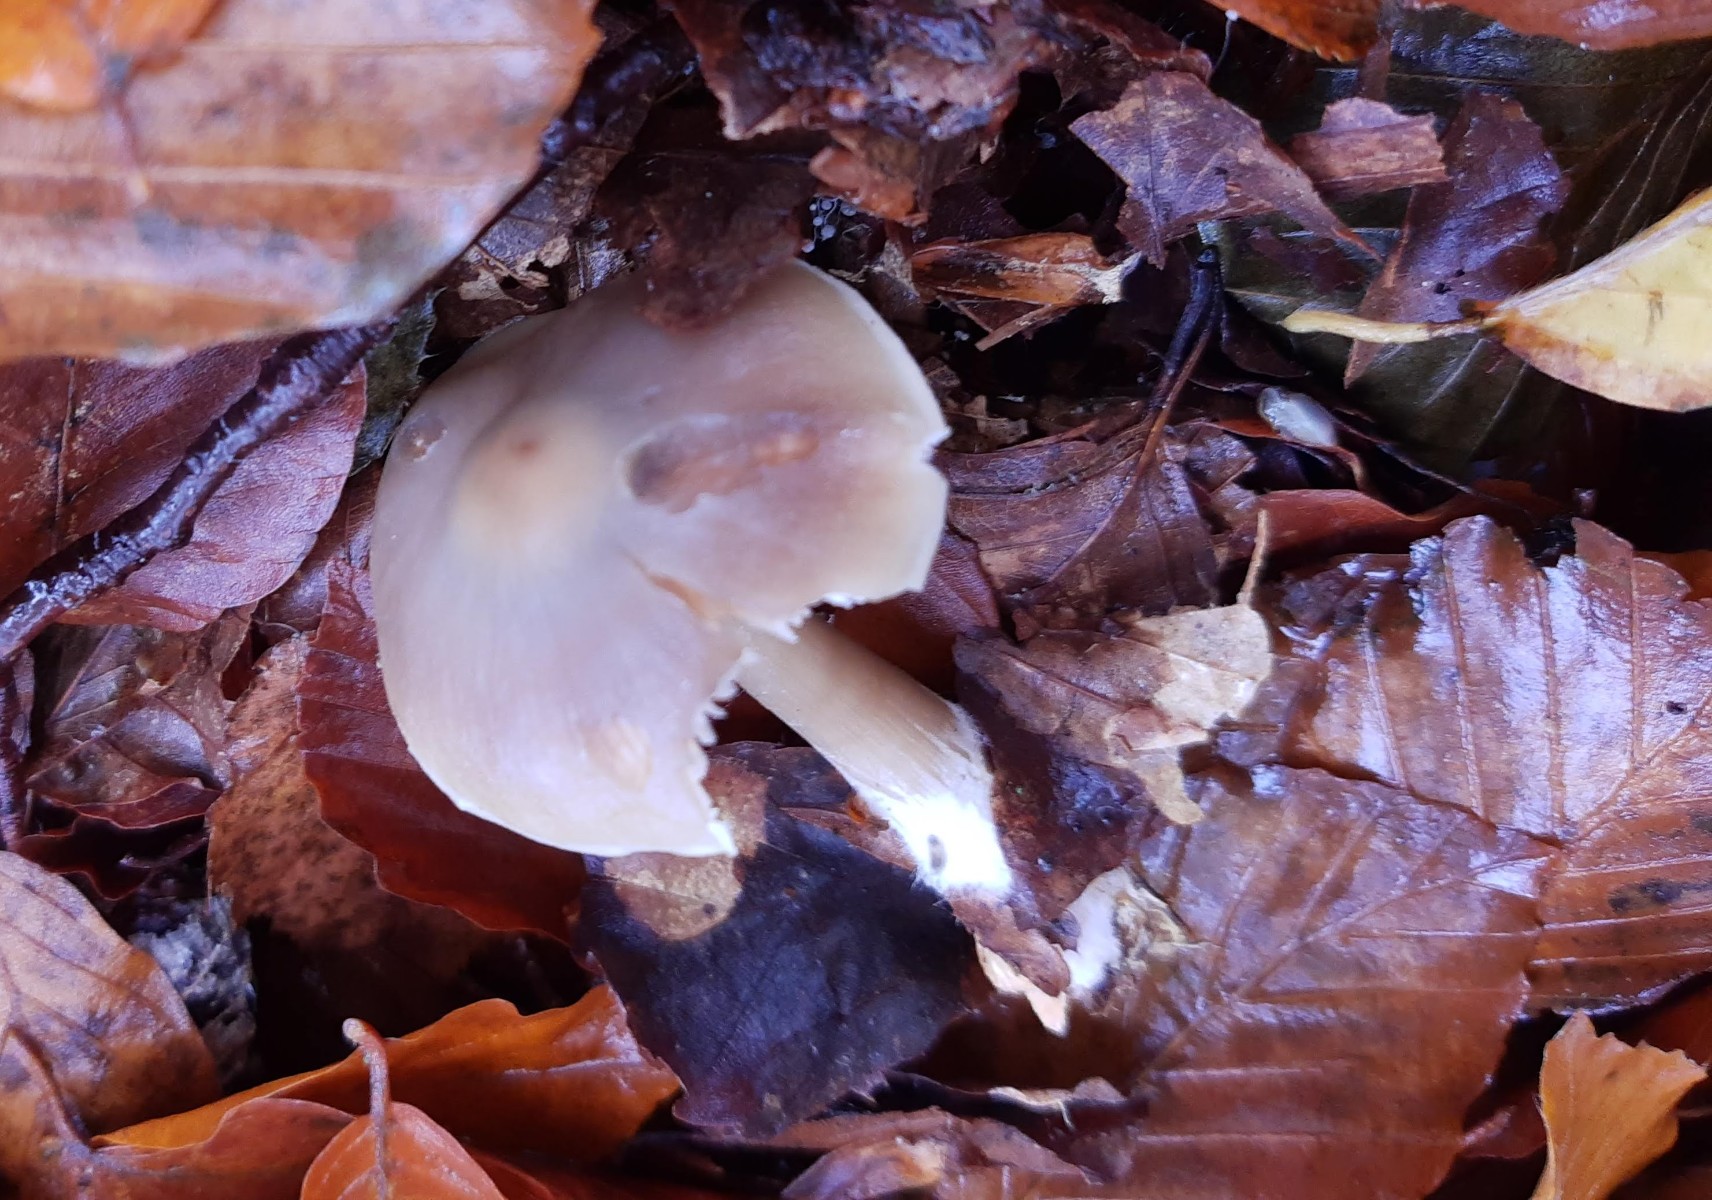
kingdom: Fungi
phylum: Basidiomycota
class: Agaricomycetes
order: Agaricales
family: Omphalotaceae
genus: Rhodocollybia
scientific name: Rhodocollybia asema
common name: horngrå fladhat
